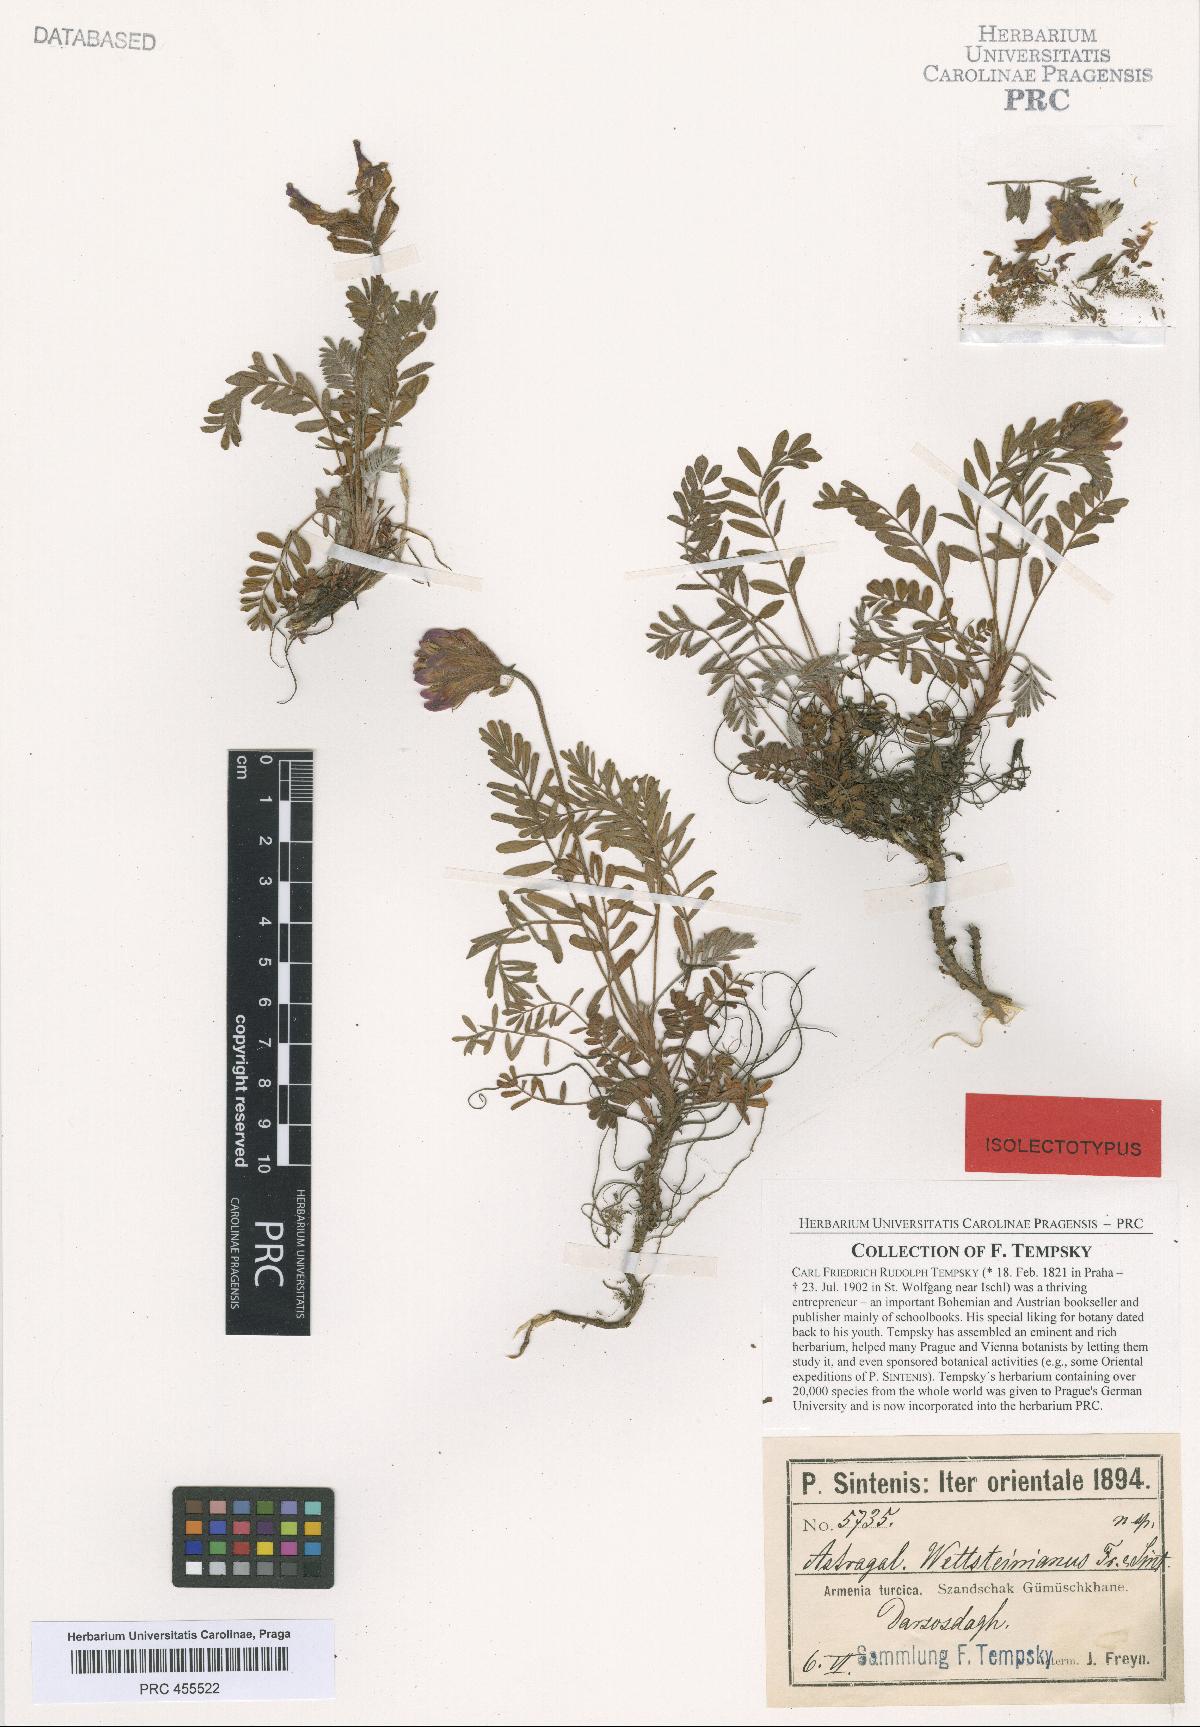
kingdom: Plantae
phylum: Tracheophyta
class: Magnoliopsida
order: Fabales
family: Fabaceae
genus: Astragalus
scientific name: Astragalus amoenus
